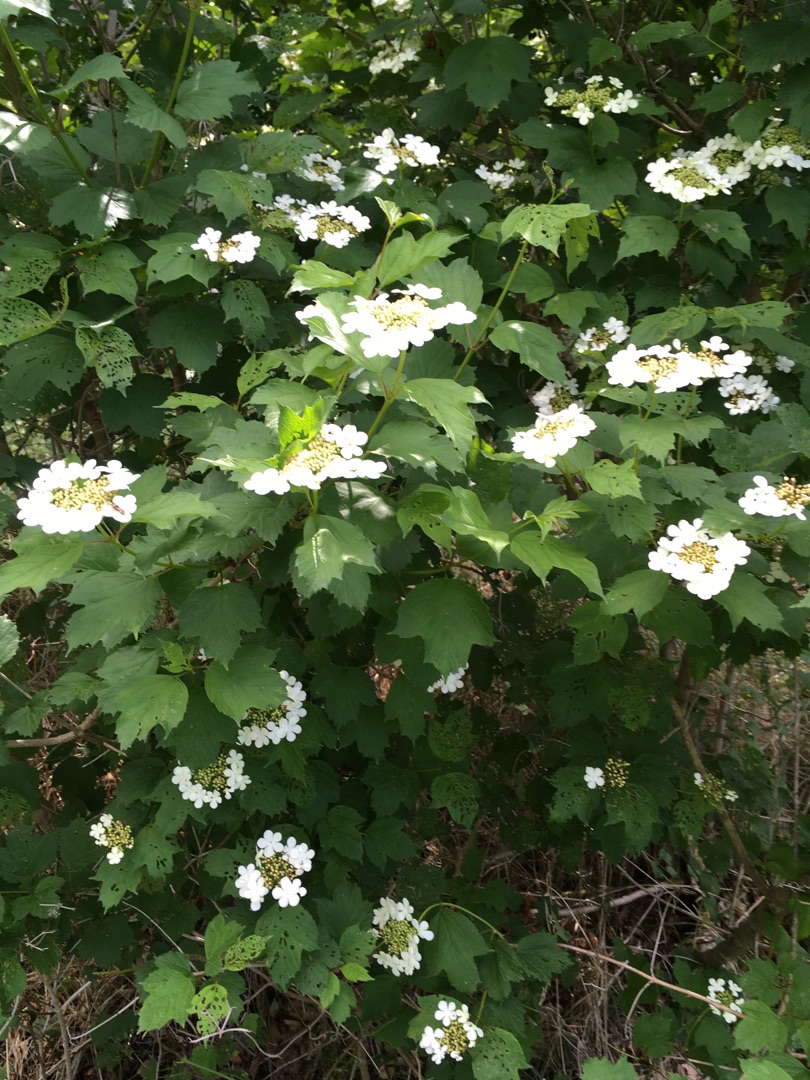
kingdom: Plantae
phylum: Tracheophyta
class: Magnoliopsida
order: Dipsacales
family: Viburnaceae
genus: Viburnum
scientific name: Viburnum opulus
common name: Kvalkved
